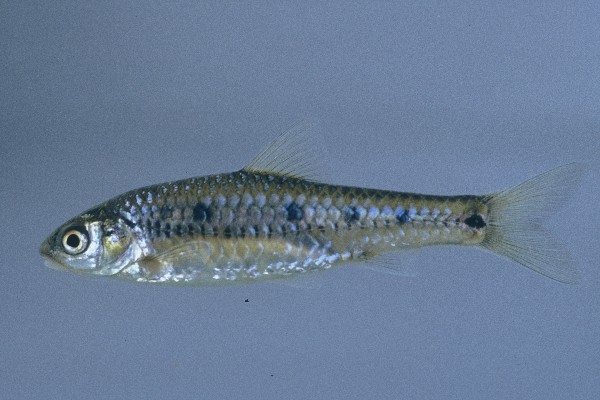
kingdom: Animalia
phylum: Chordata
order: Cypriniformes
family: Cyprinidae
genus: Enteromius
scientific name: Enteromius lineomaculatus
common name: Line-spotted barb
